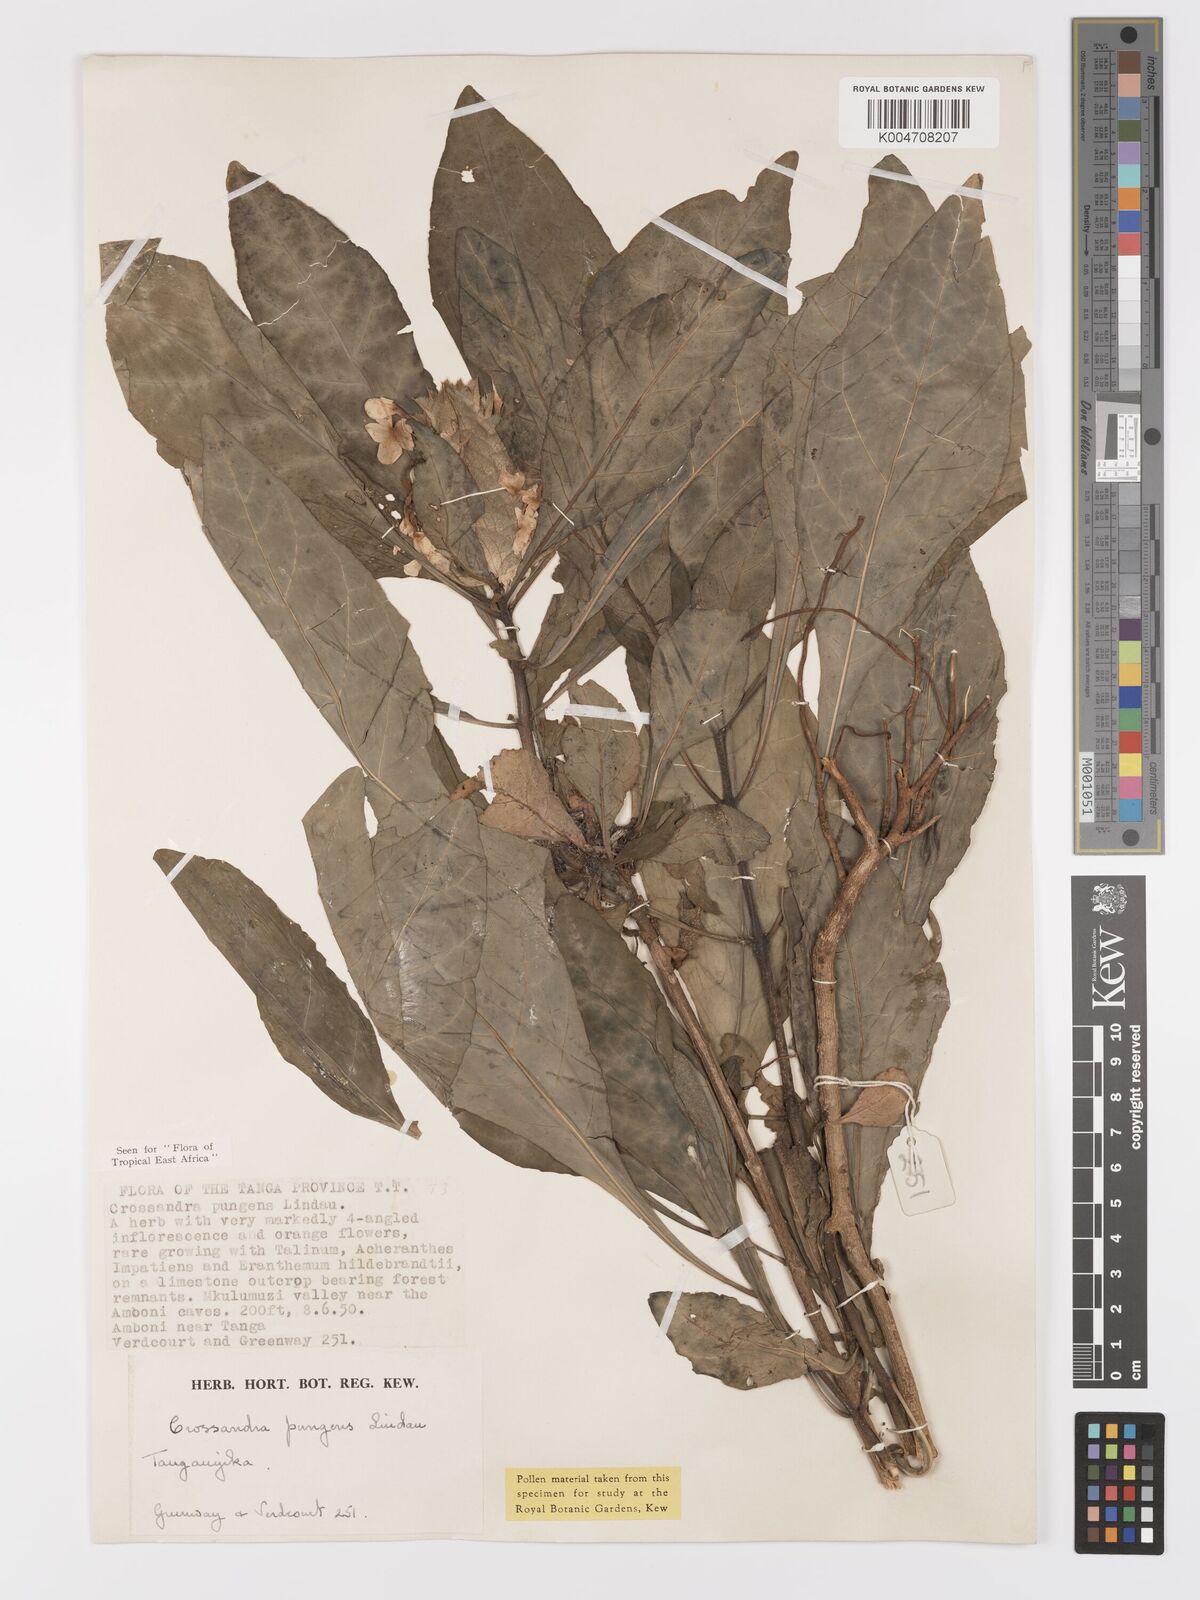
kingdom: Plantae
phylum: Tracheophyta
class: Magnoliopsida
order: Lamiales
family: Acanthaceae
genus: Crossandra
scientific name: Crossandra pungens
